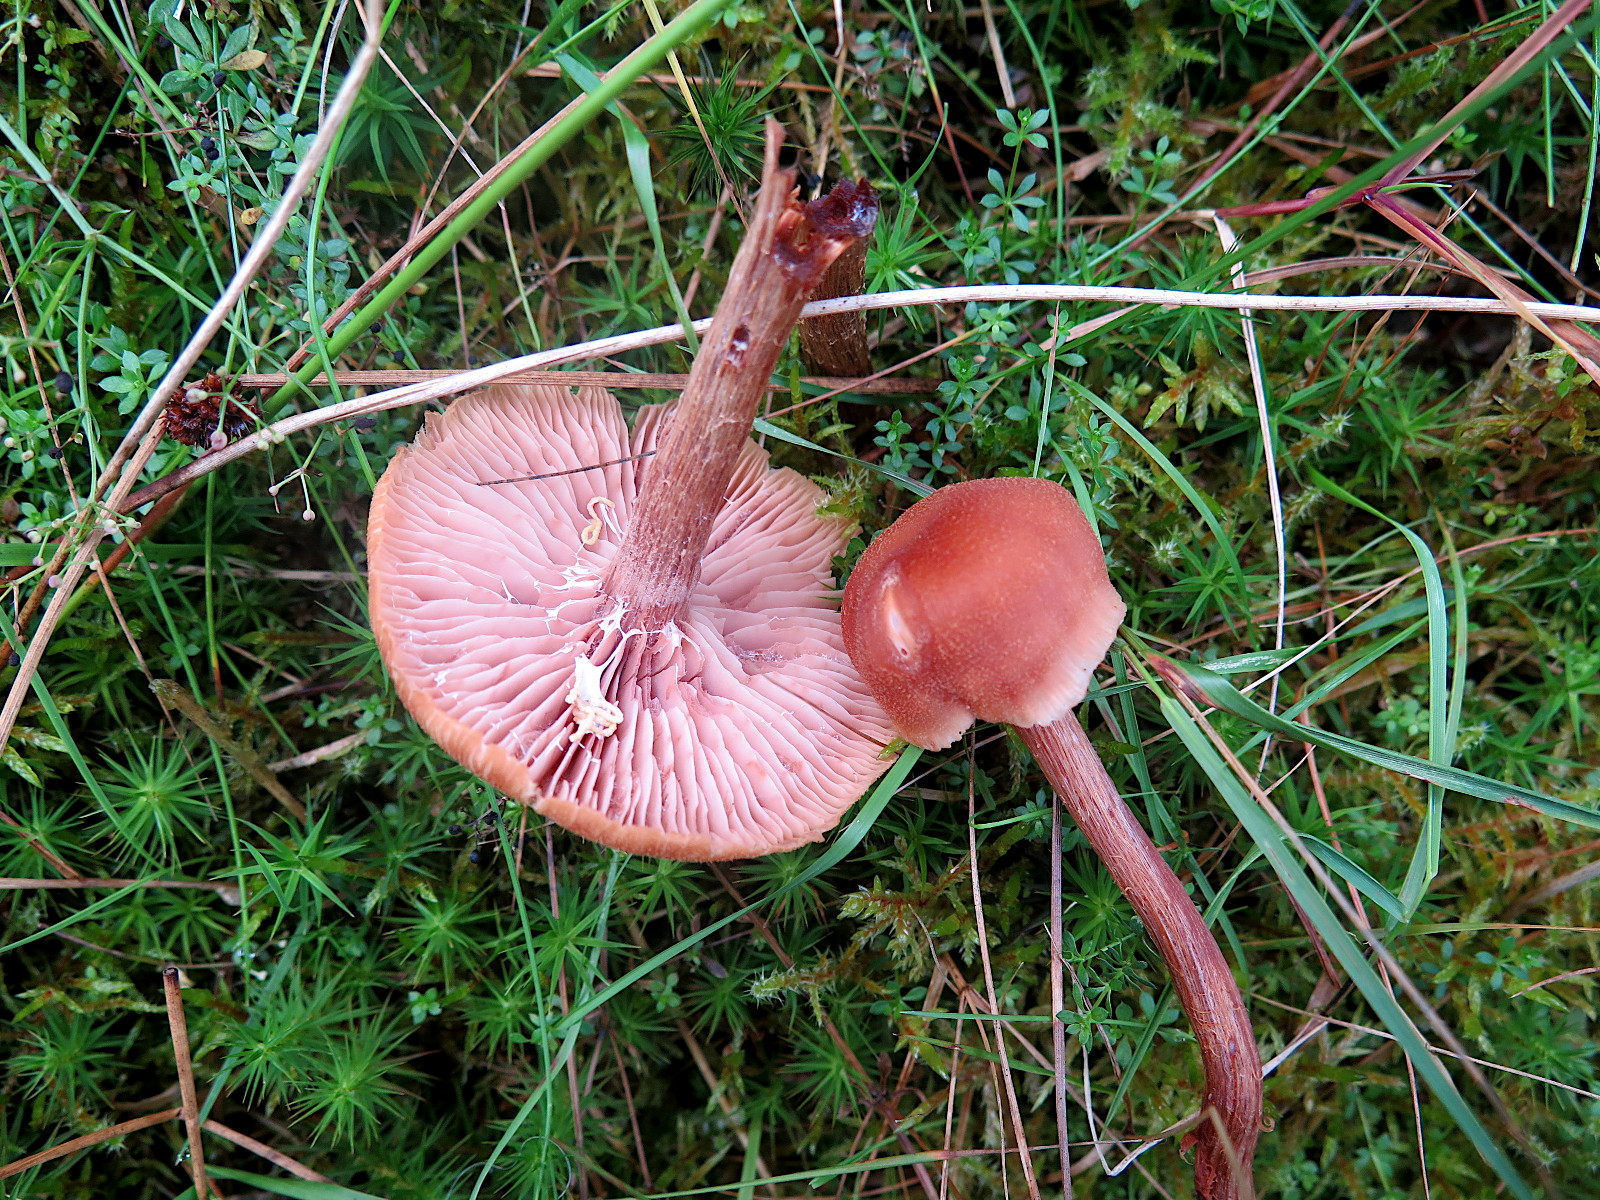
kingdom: Fungi
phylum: Basidiomycota
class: Agaricomycetes
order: Agaricales
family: Hydnangiaceae
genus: Laccaria
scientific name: Laccaria proxima
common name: stor ametysthat
